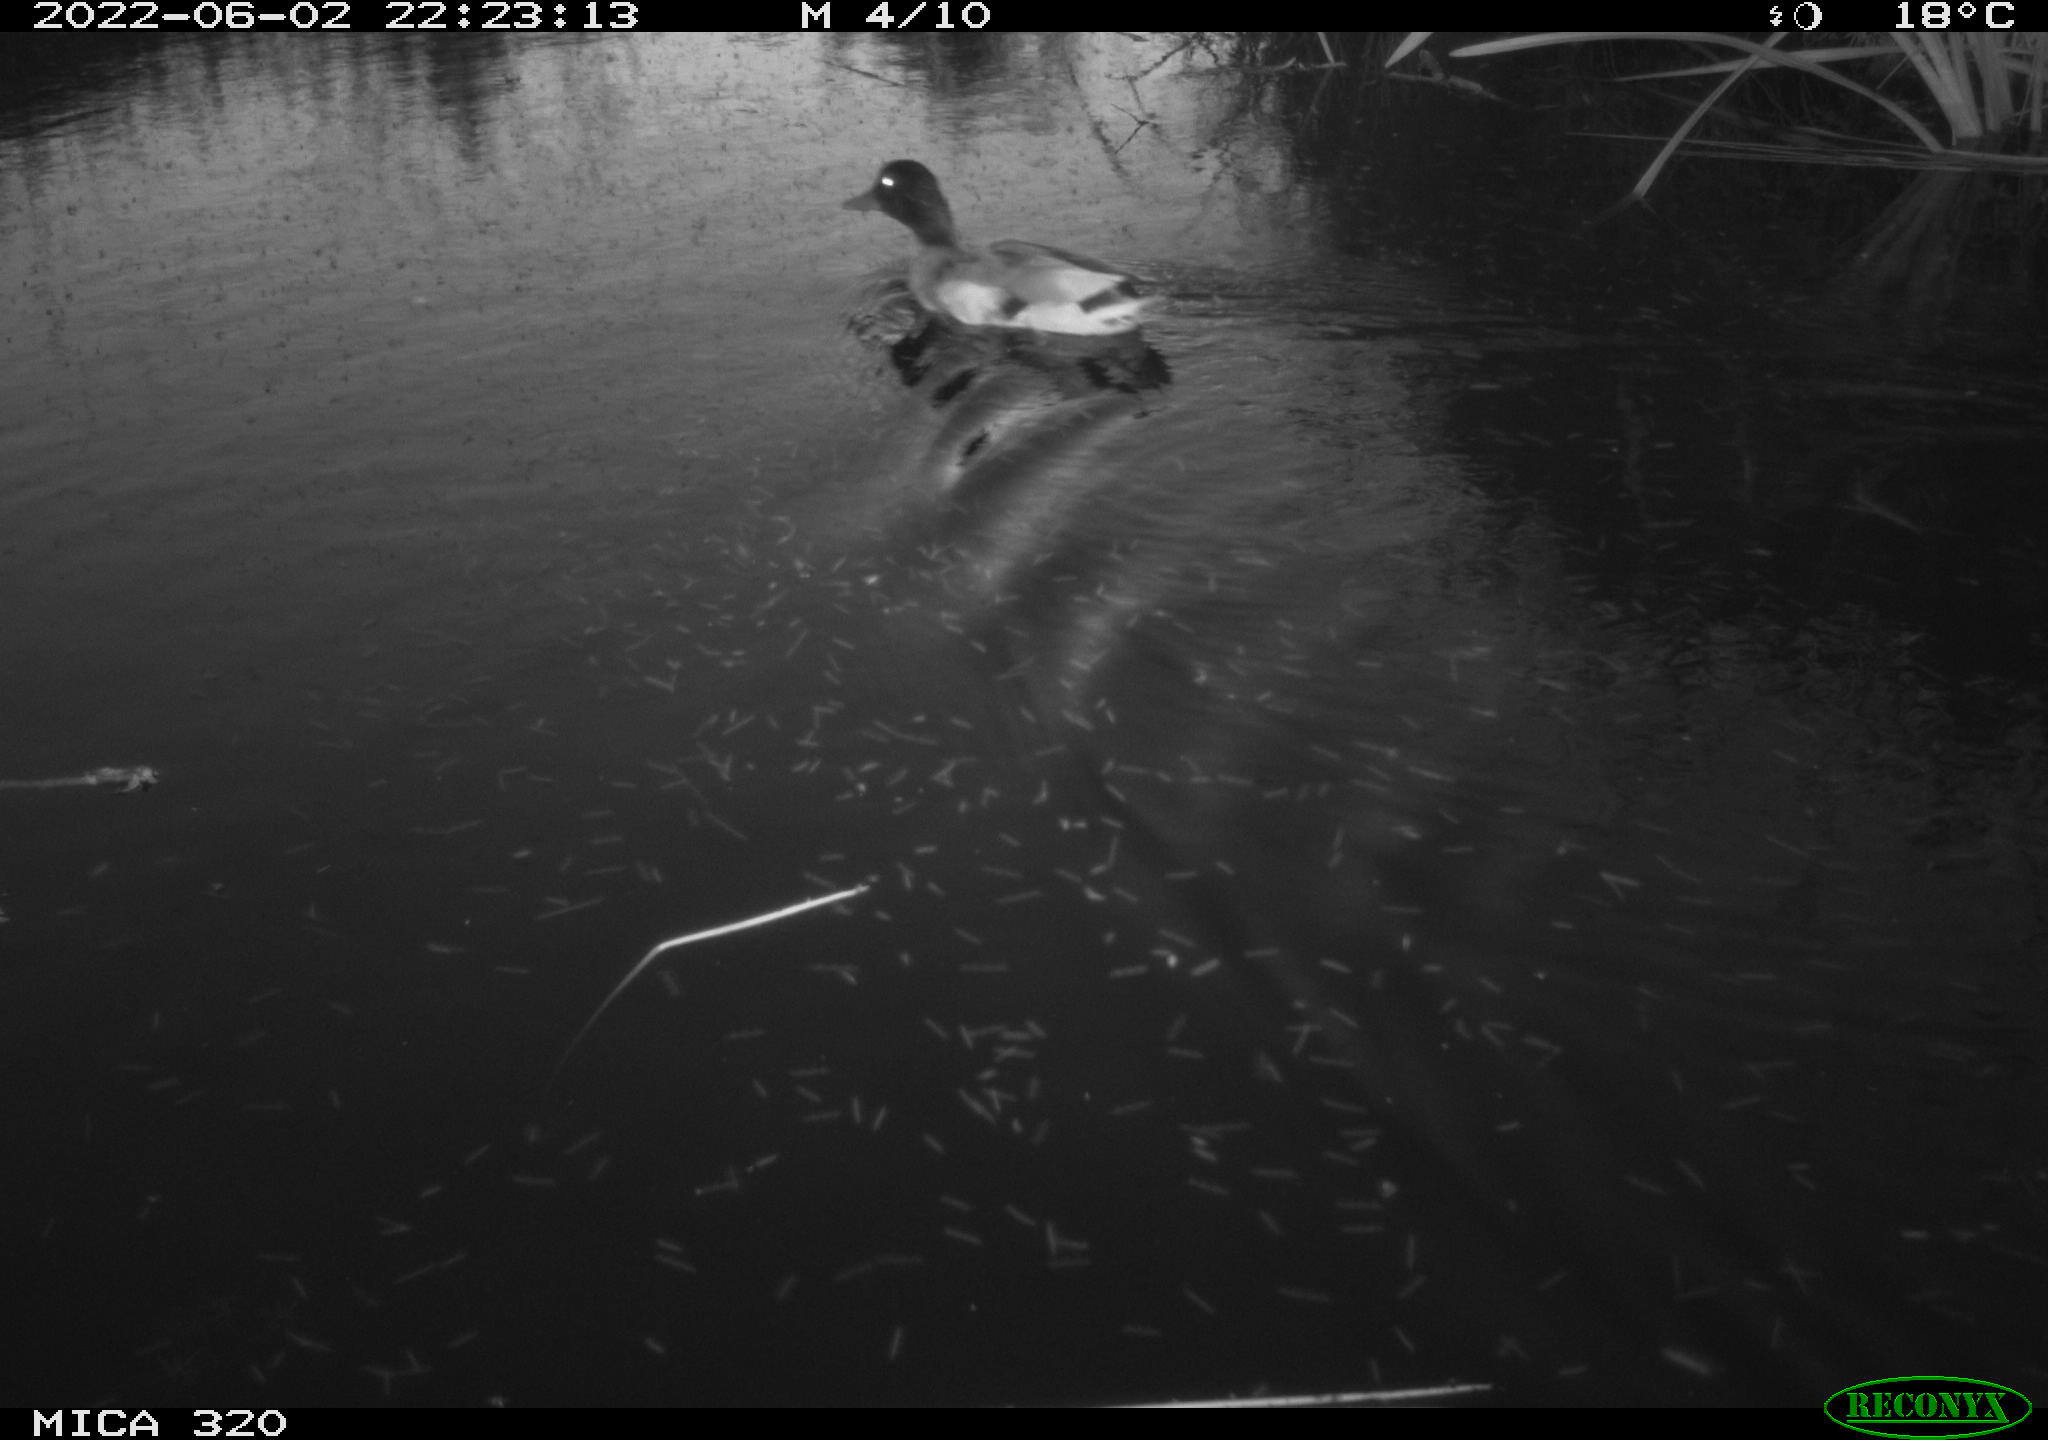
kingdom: Animalia
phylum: Chordata
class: Aves
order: Gruiformes
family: Rallidae
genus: Gallinula
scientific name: Gallinula chloropus
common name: Common moorhen
